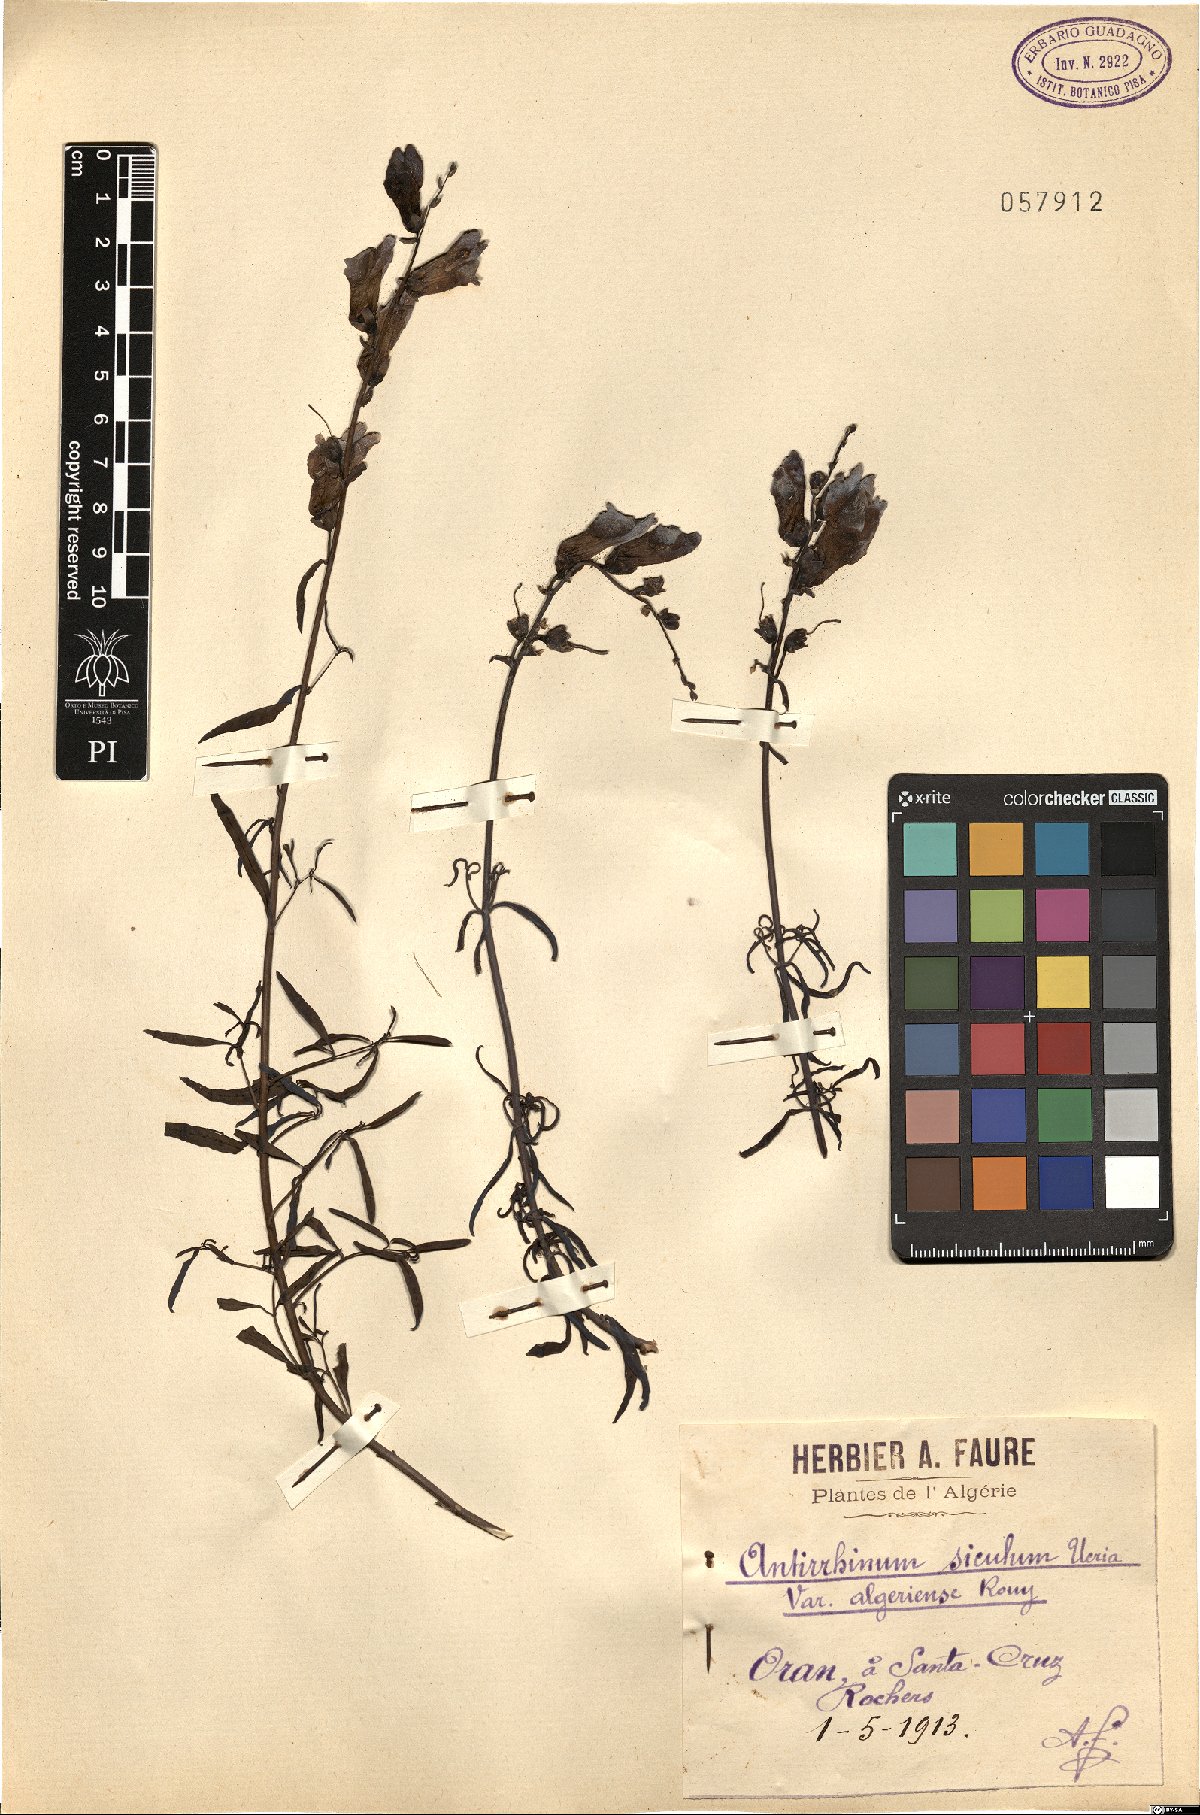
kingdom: Plantae
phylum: Tracheophyta
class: Magnoliopsida
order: Lamiales
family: Plantaginaceae
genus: Antirrhinum
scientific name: Antirrhinum tortuosum
